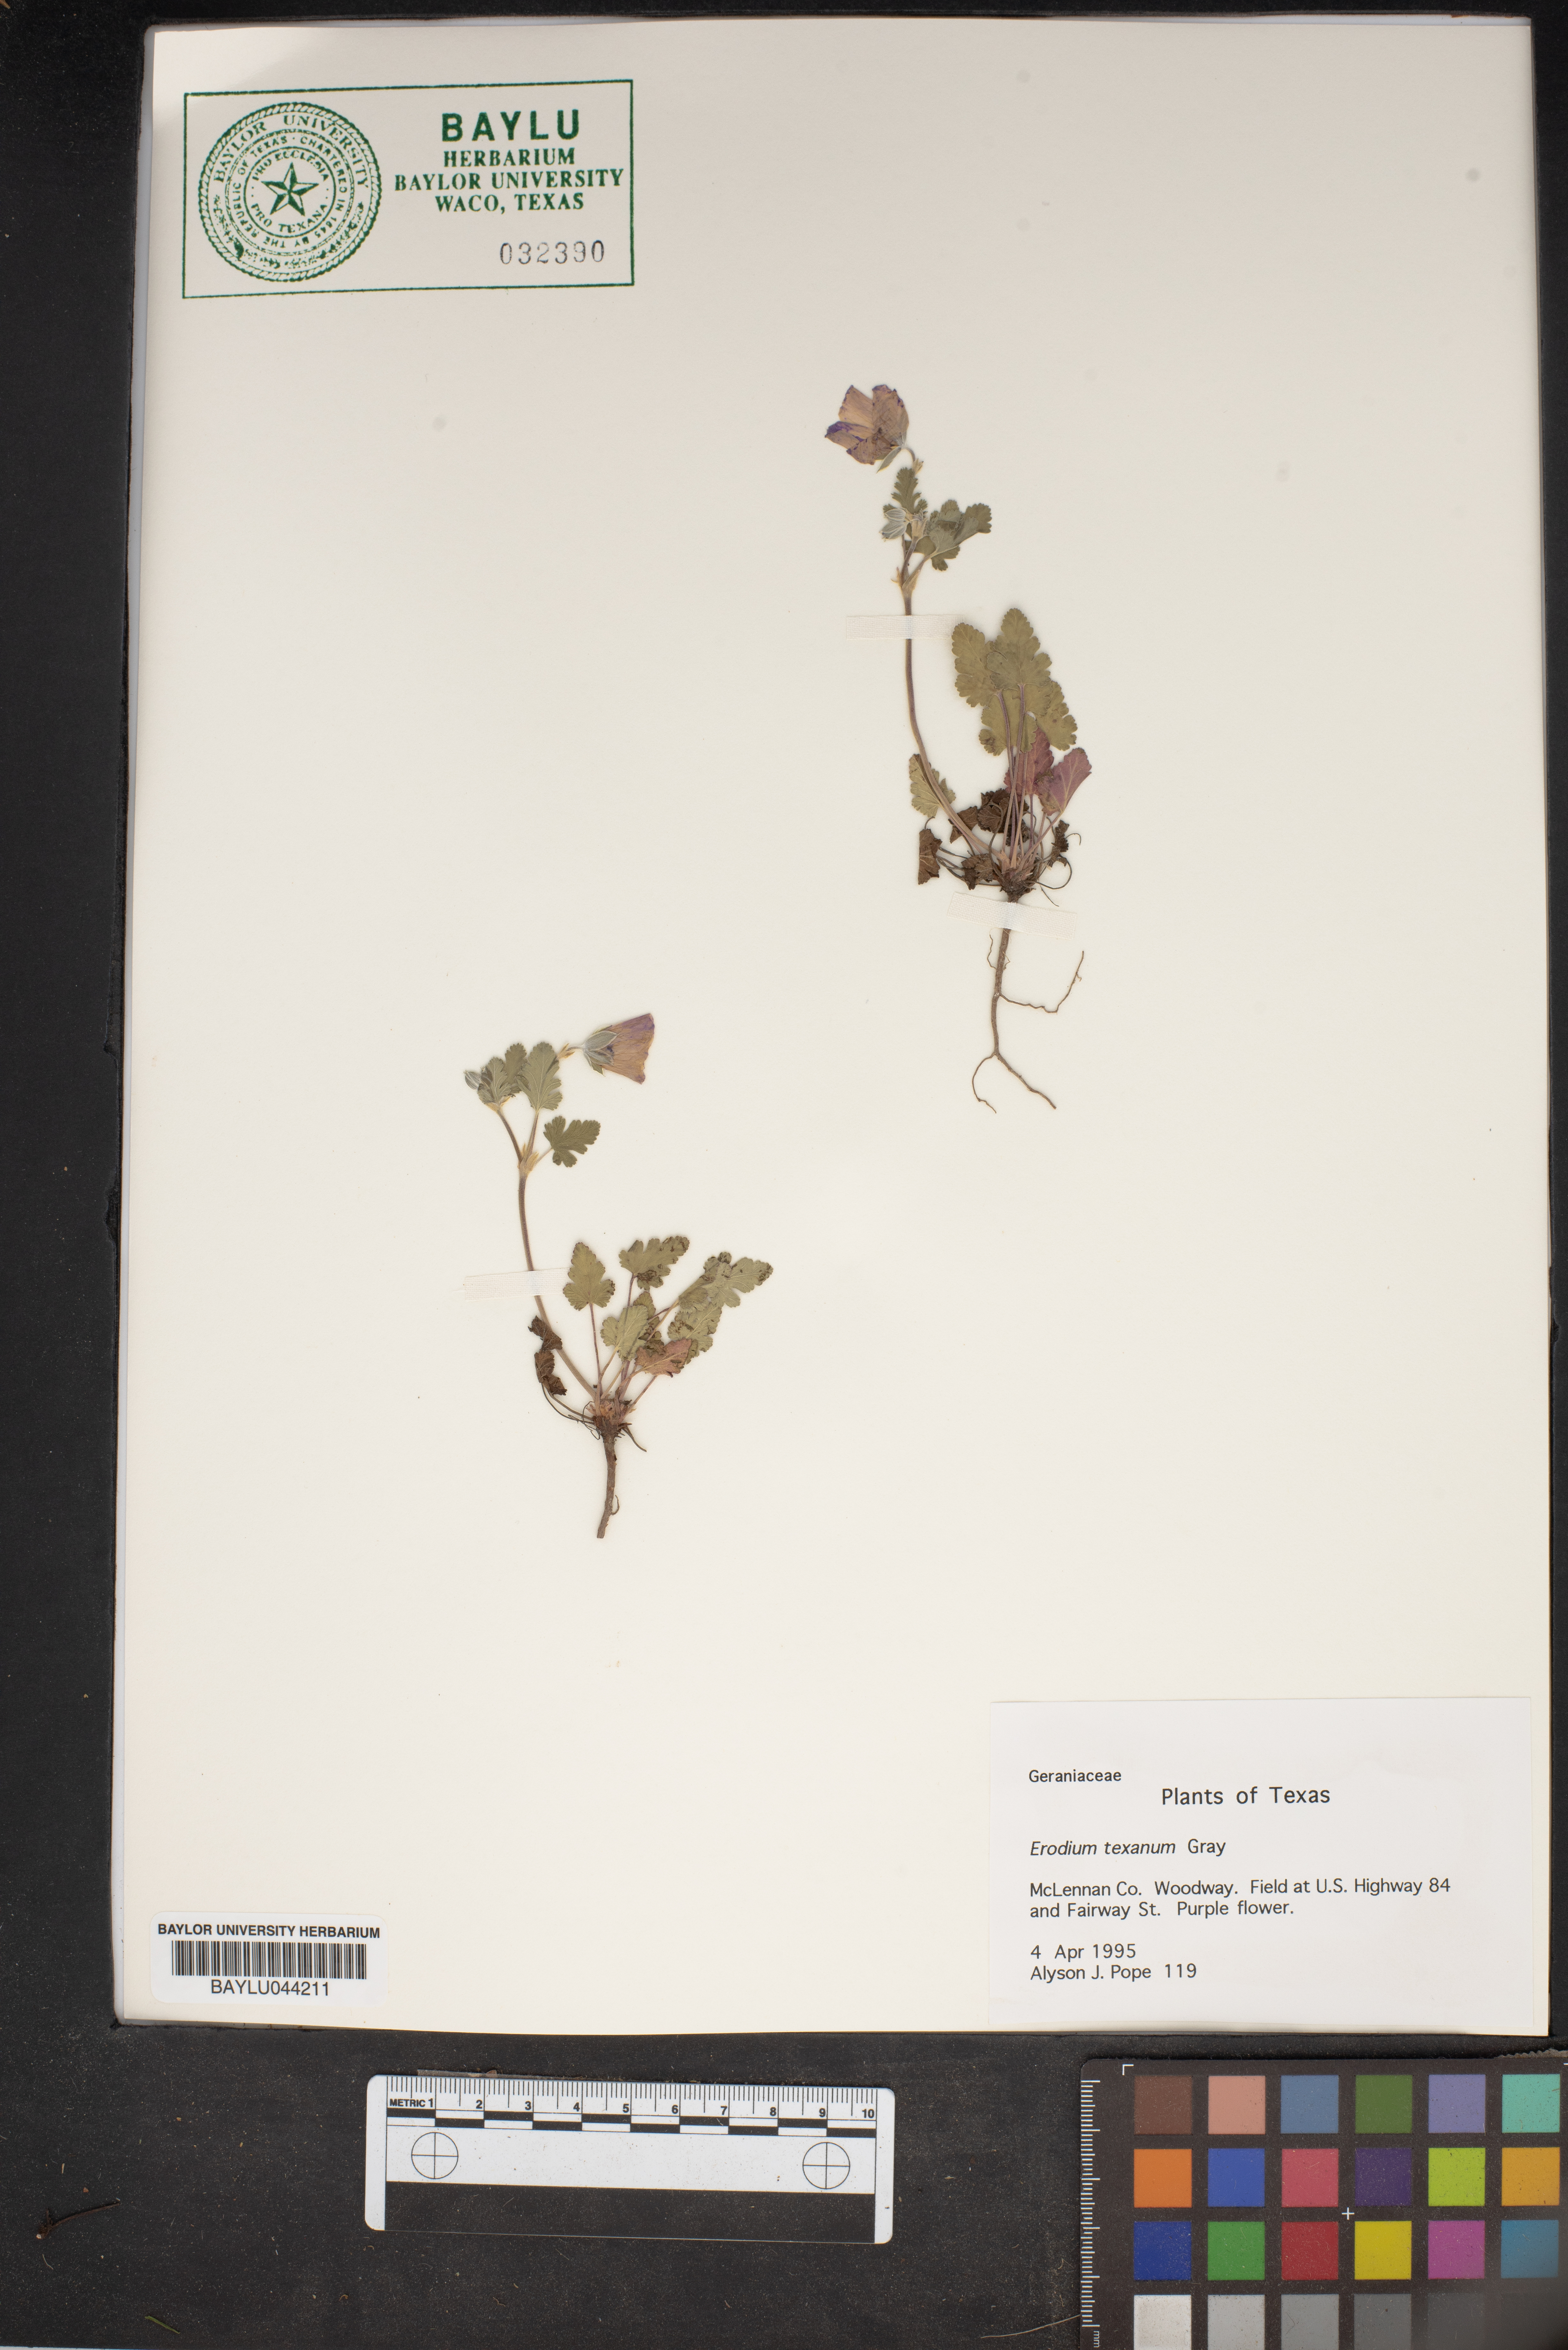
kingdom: Plantae
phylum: Tracheophyta
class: Magnoliopsida
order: Geraniales
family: Geraniaceae
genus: Erodium
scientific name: Erodium texanum
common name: Texas stork's-bill
